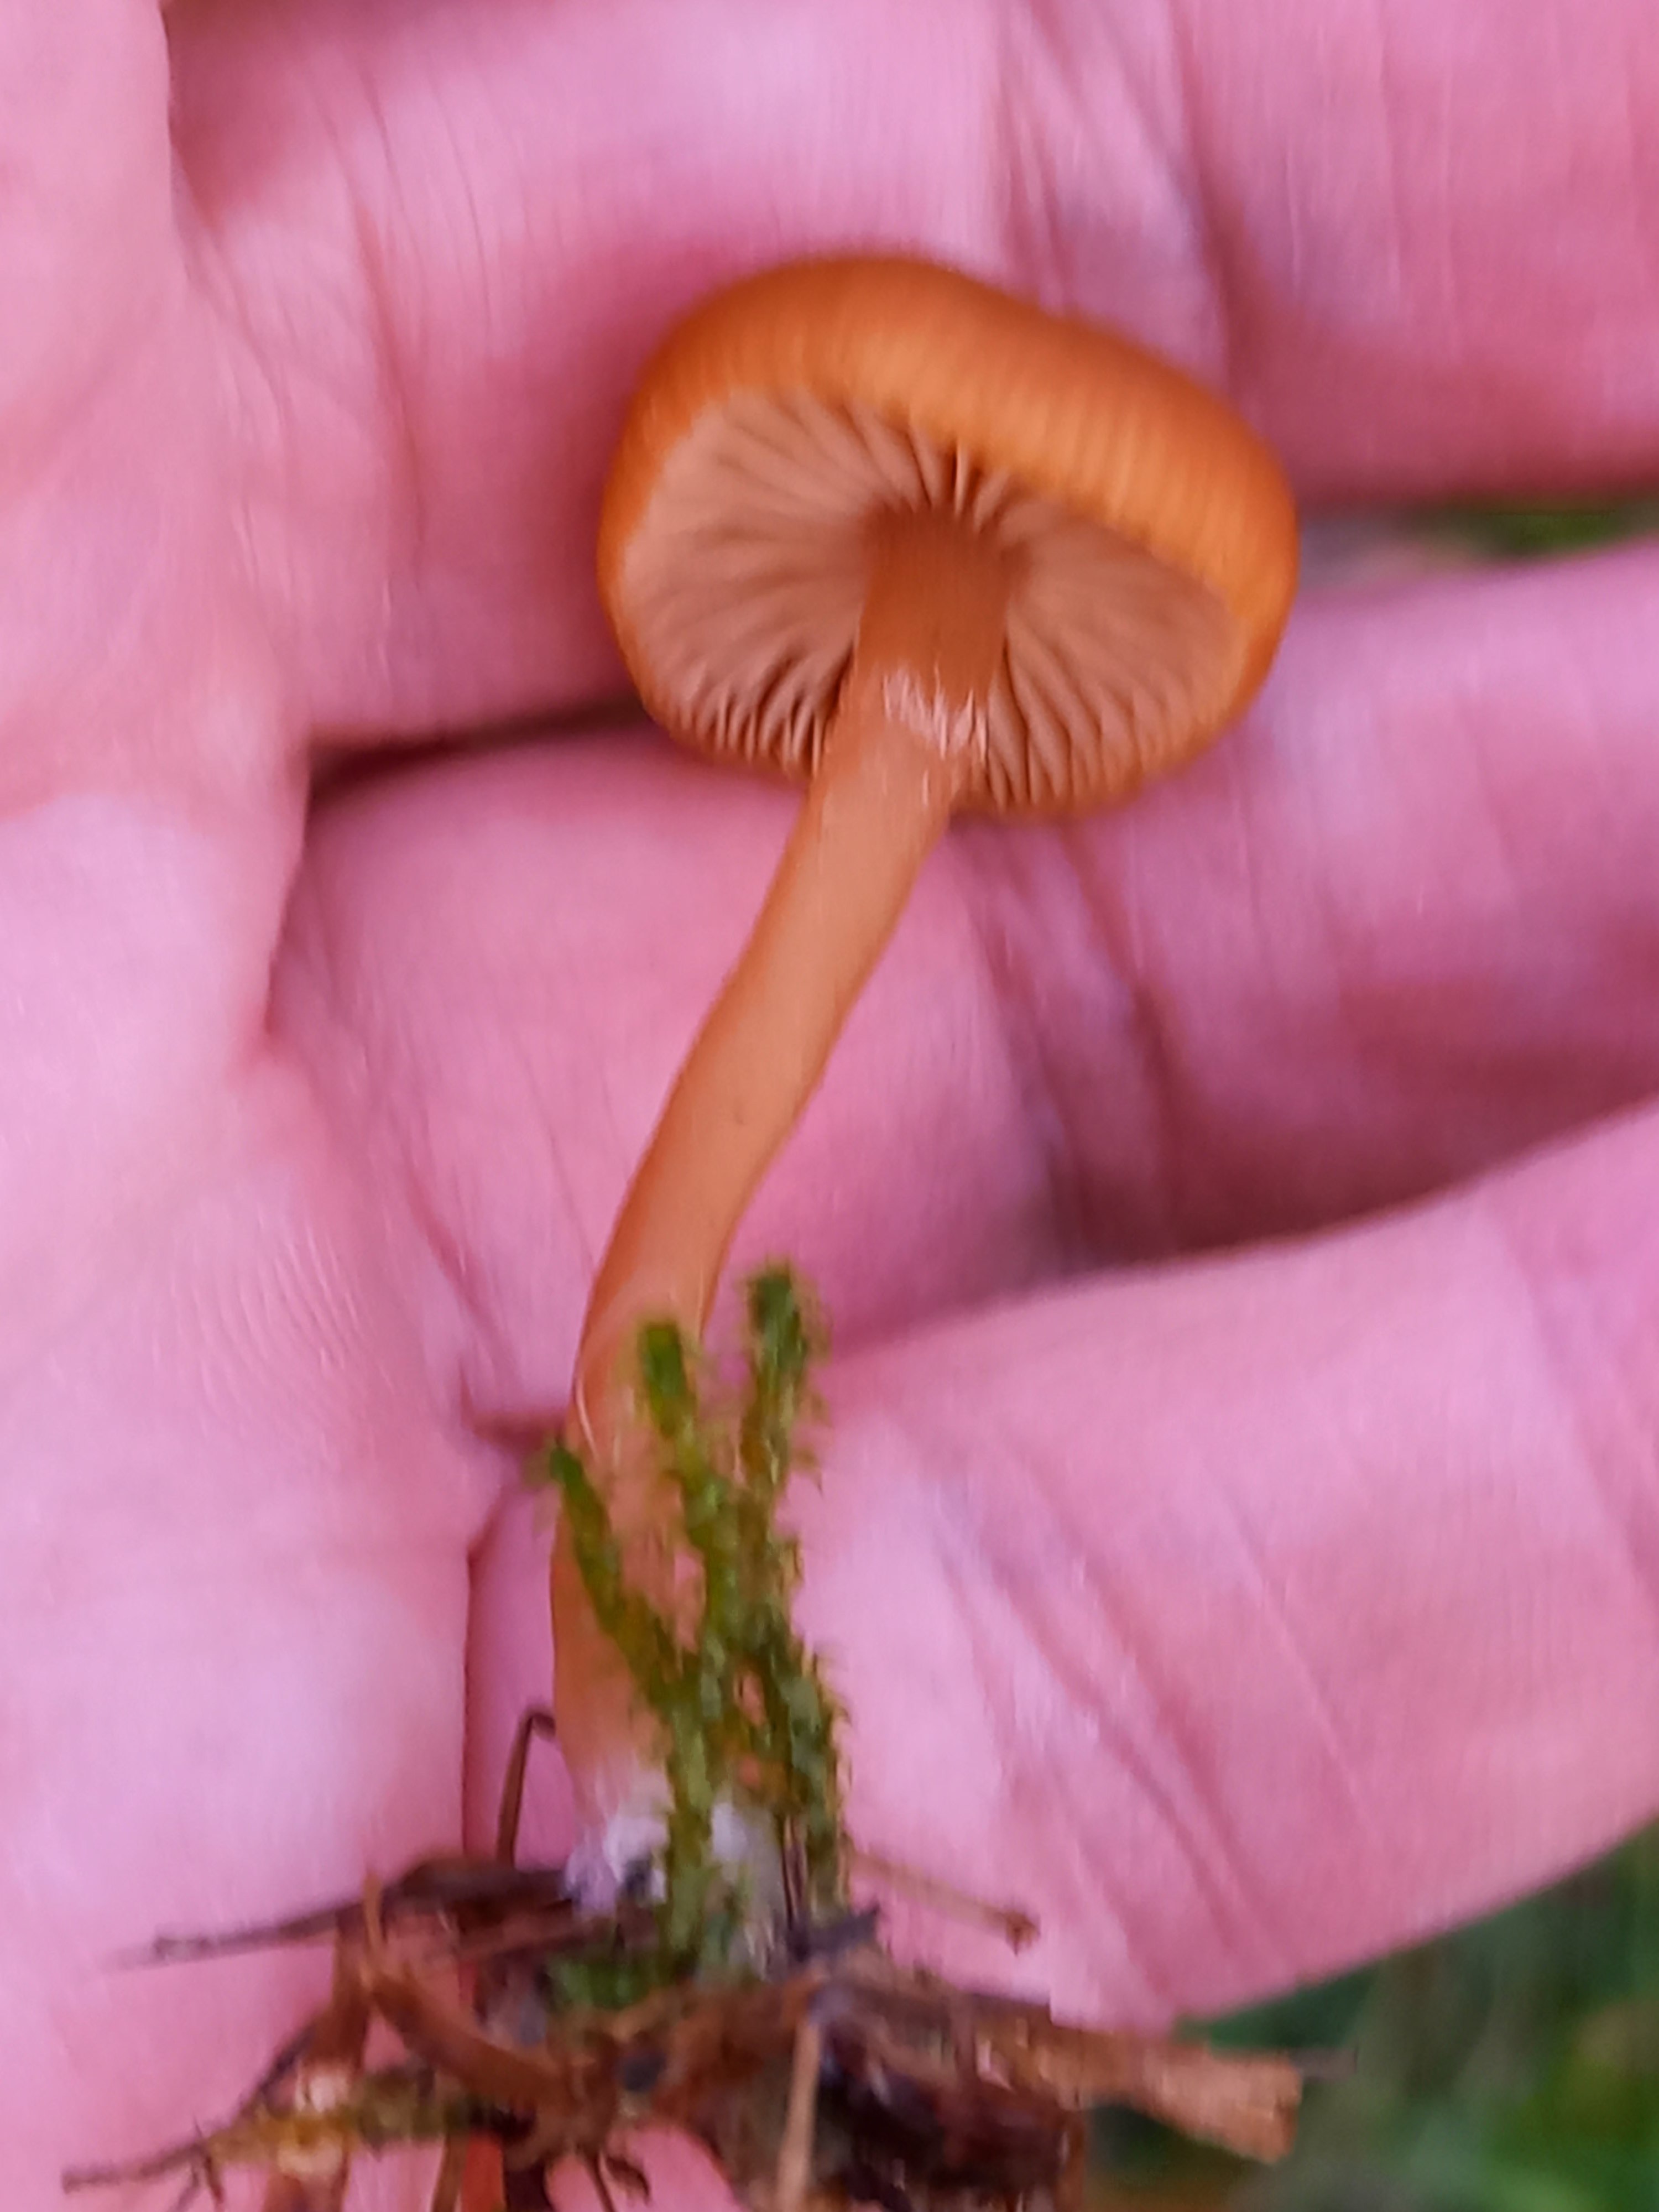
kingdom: Fungi
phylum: Basidiomycota
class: Agaricomycetes
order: Agaricales
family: Tubariaceae
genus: Tubaria
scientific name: Tubaria furfuracea
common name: kliddet fnughat
